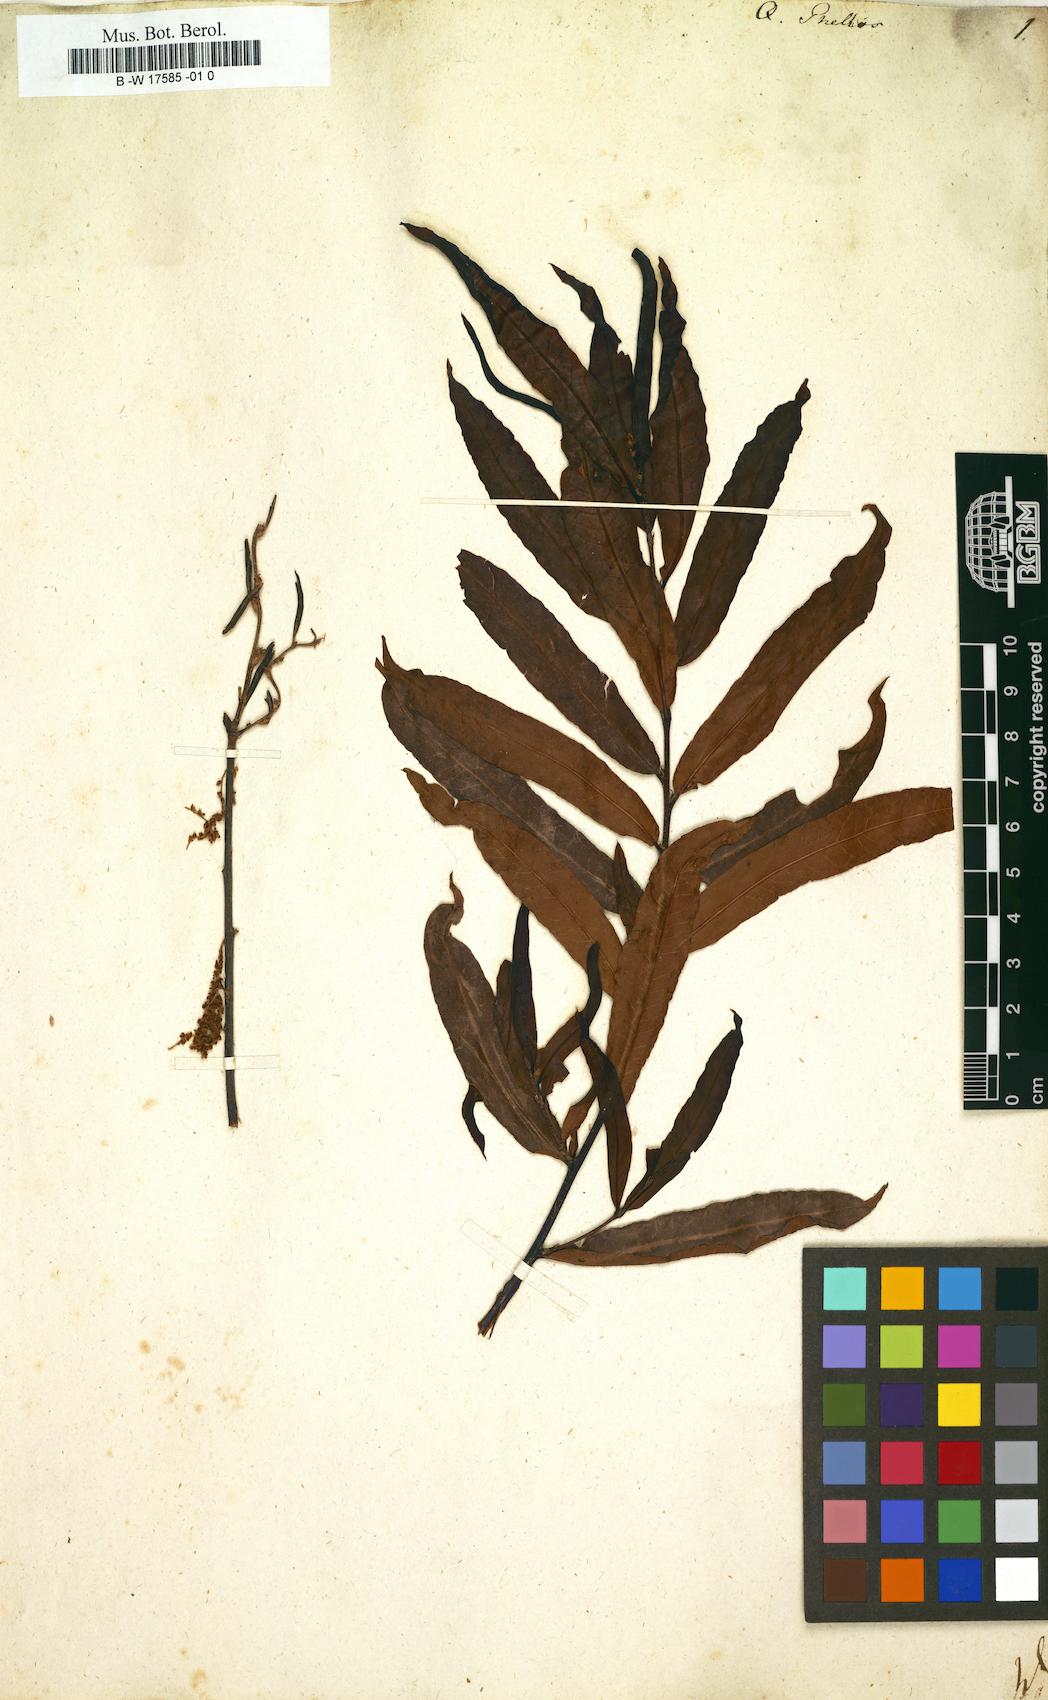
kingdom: Plantae
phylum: Tracheophyta
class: Magnoliopsida
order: Fagales
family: Fagaceae
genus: Quercus
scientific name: Quercus phellos
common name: Willow oak
